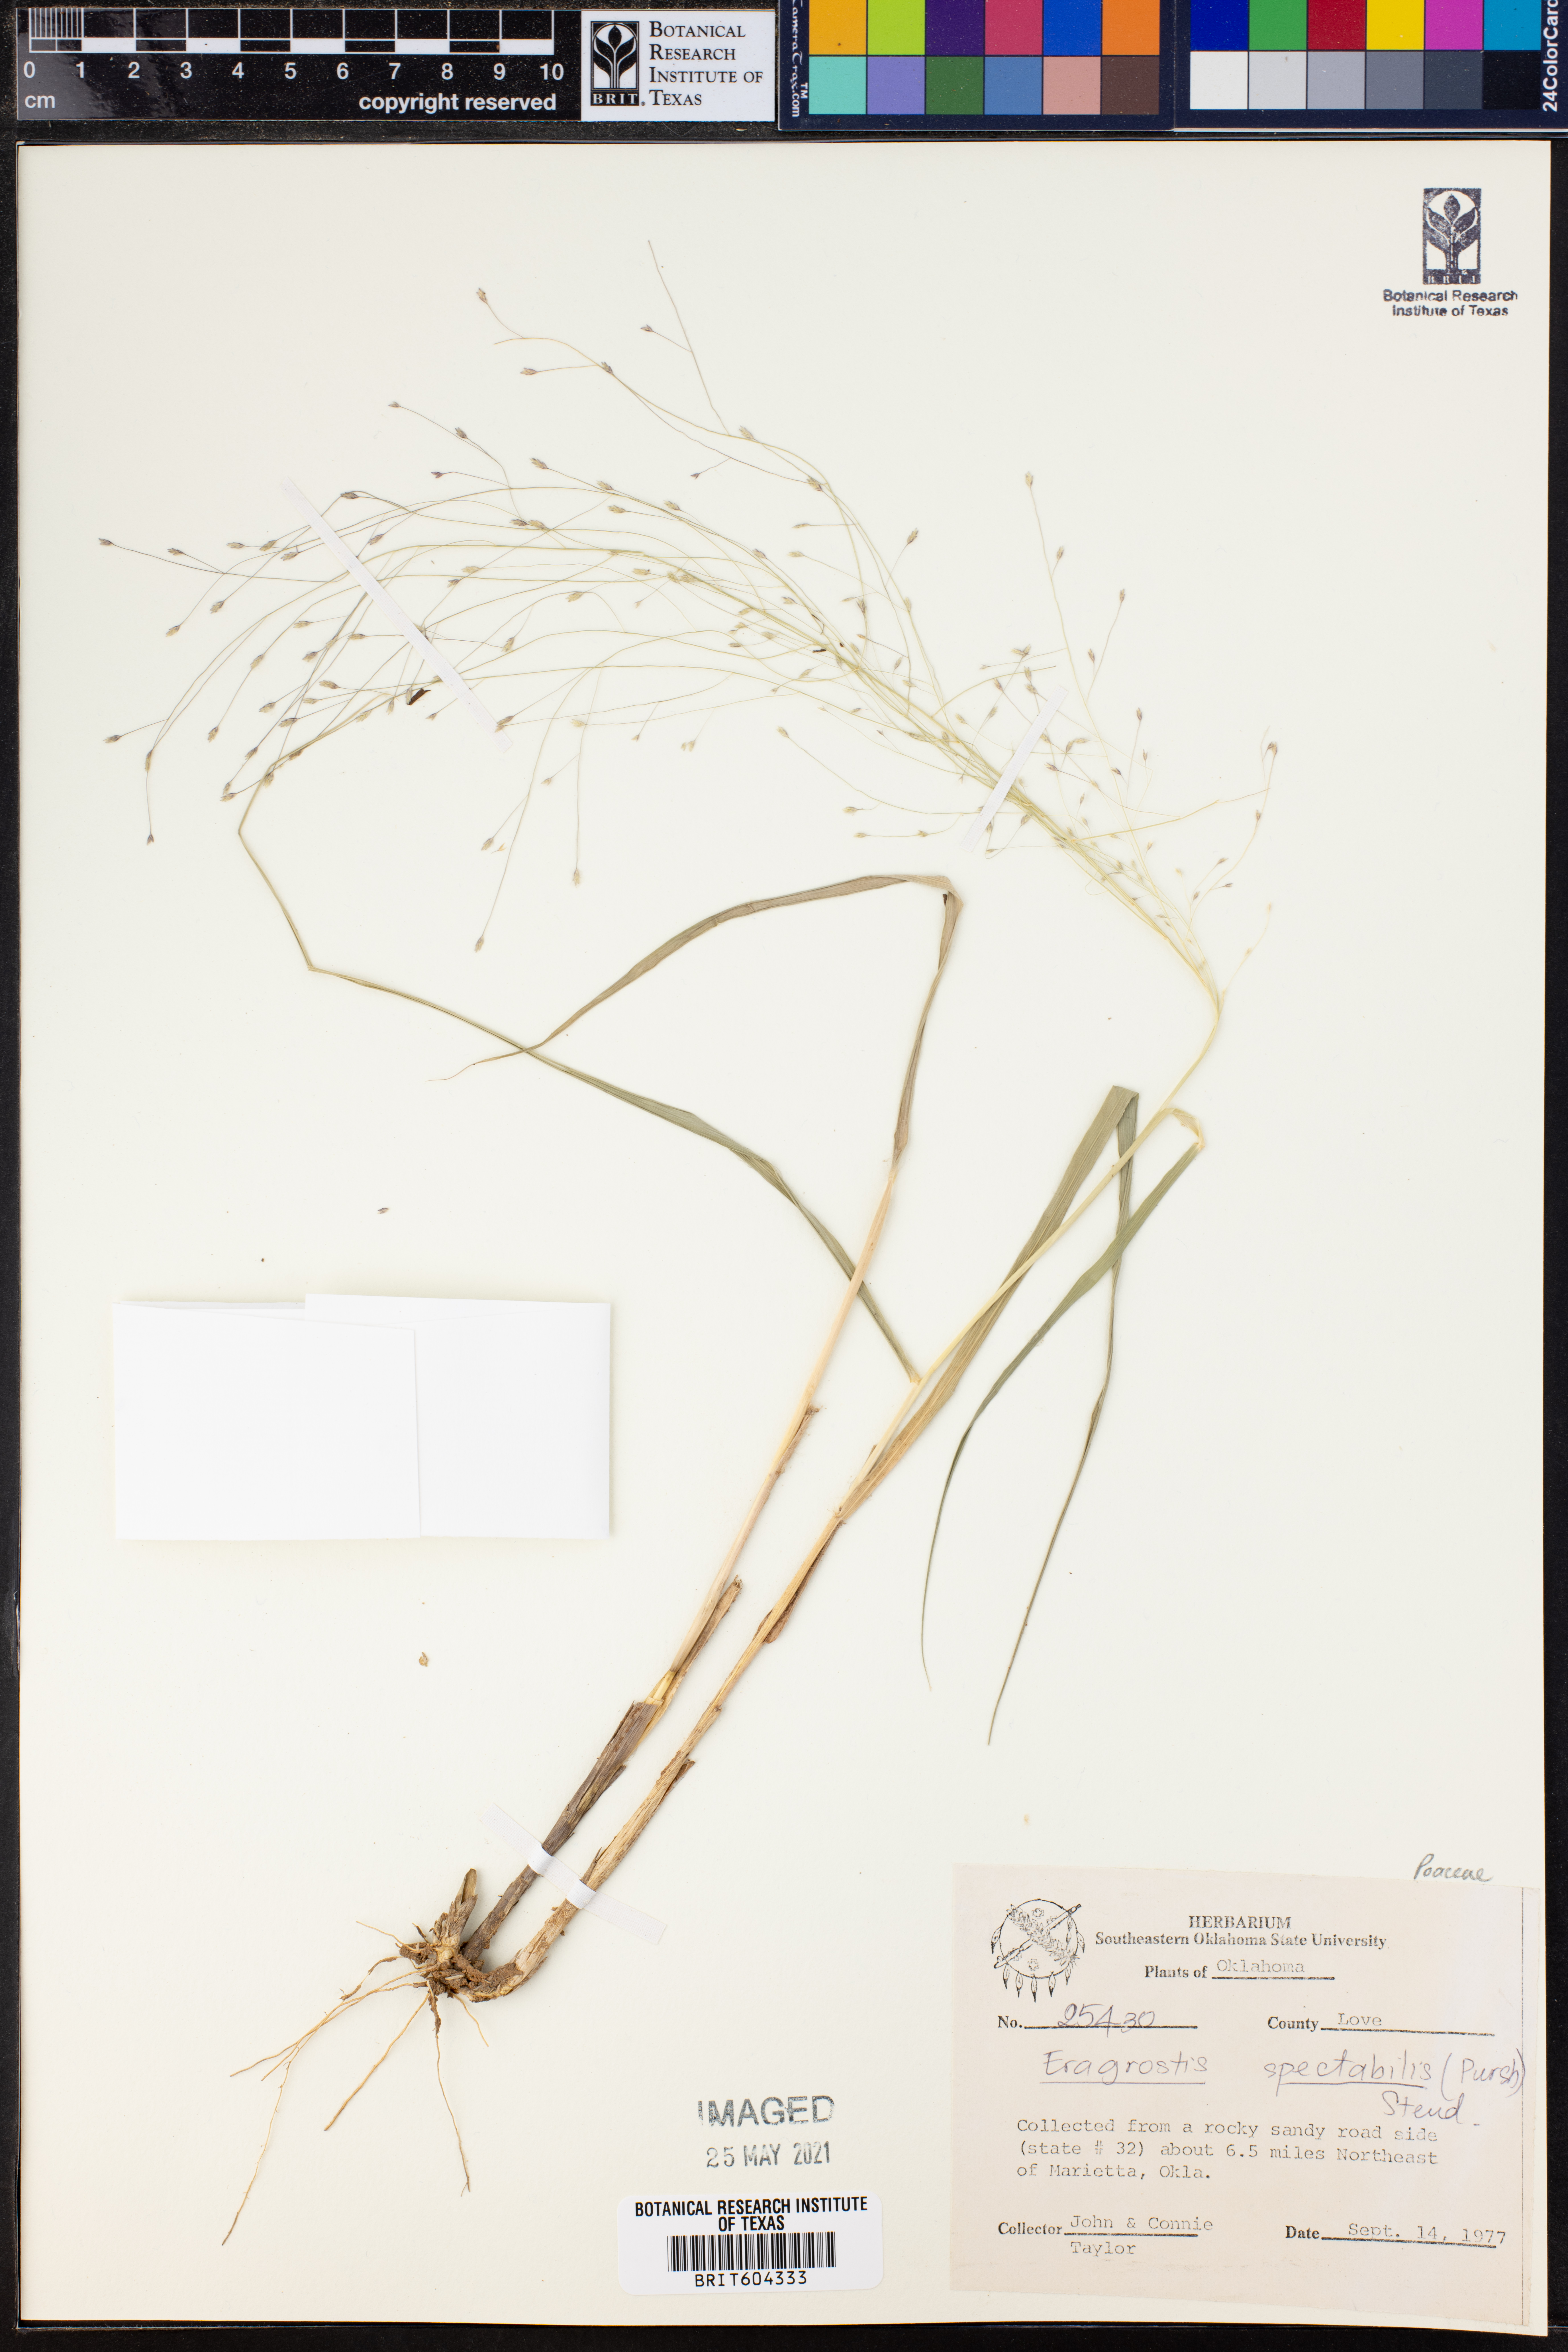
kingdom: Plantae
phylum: Tracheophyta
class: Liliopsida
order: Poales
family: Poaceae
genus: Eragrostis
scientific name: Eragrostis spectabilis
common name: Petticoat-climber
